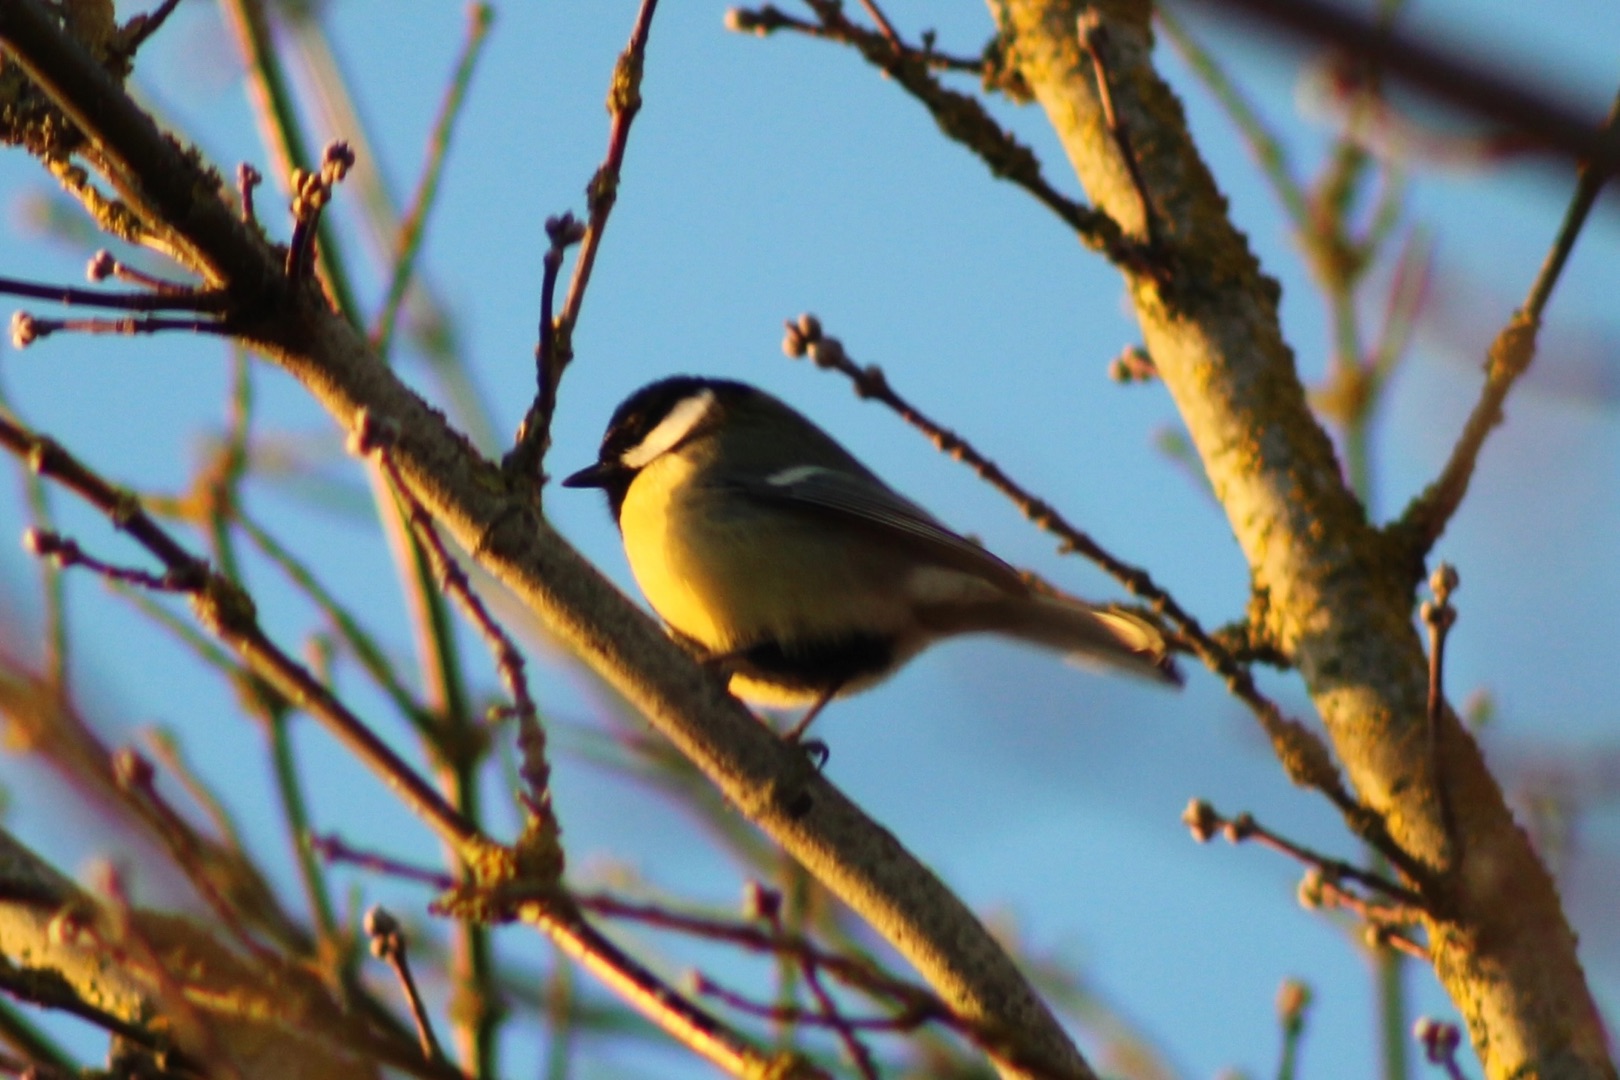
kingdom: Animalia
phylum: Chordata
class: Aves
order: Passeriformes
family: Paridae
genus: Parus
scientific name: Parus major
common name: Musvit
